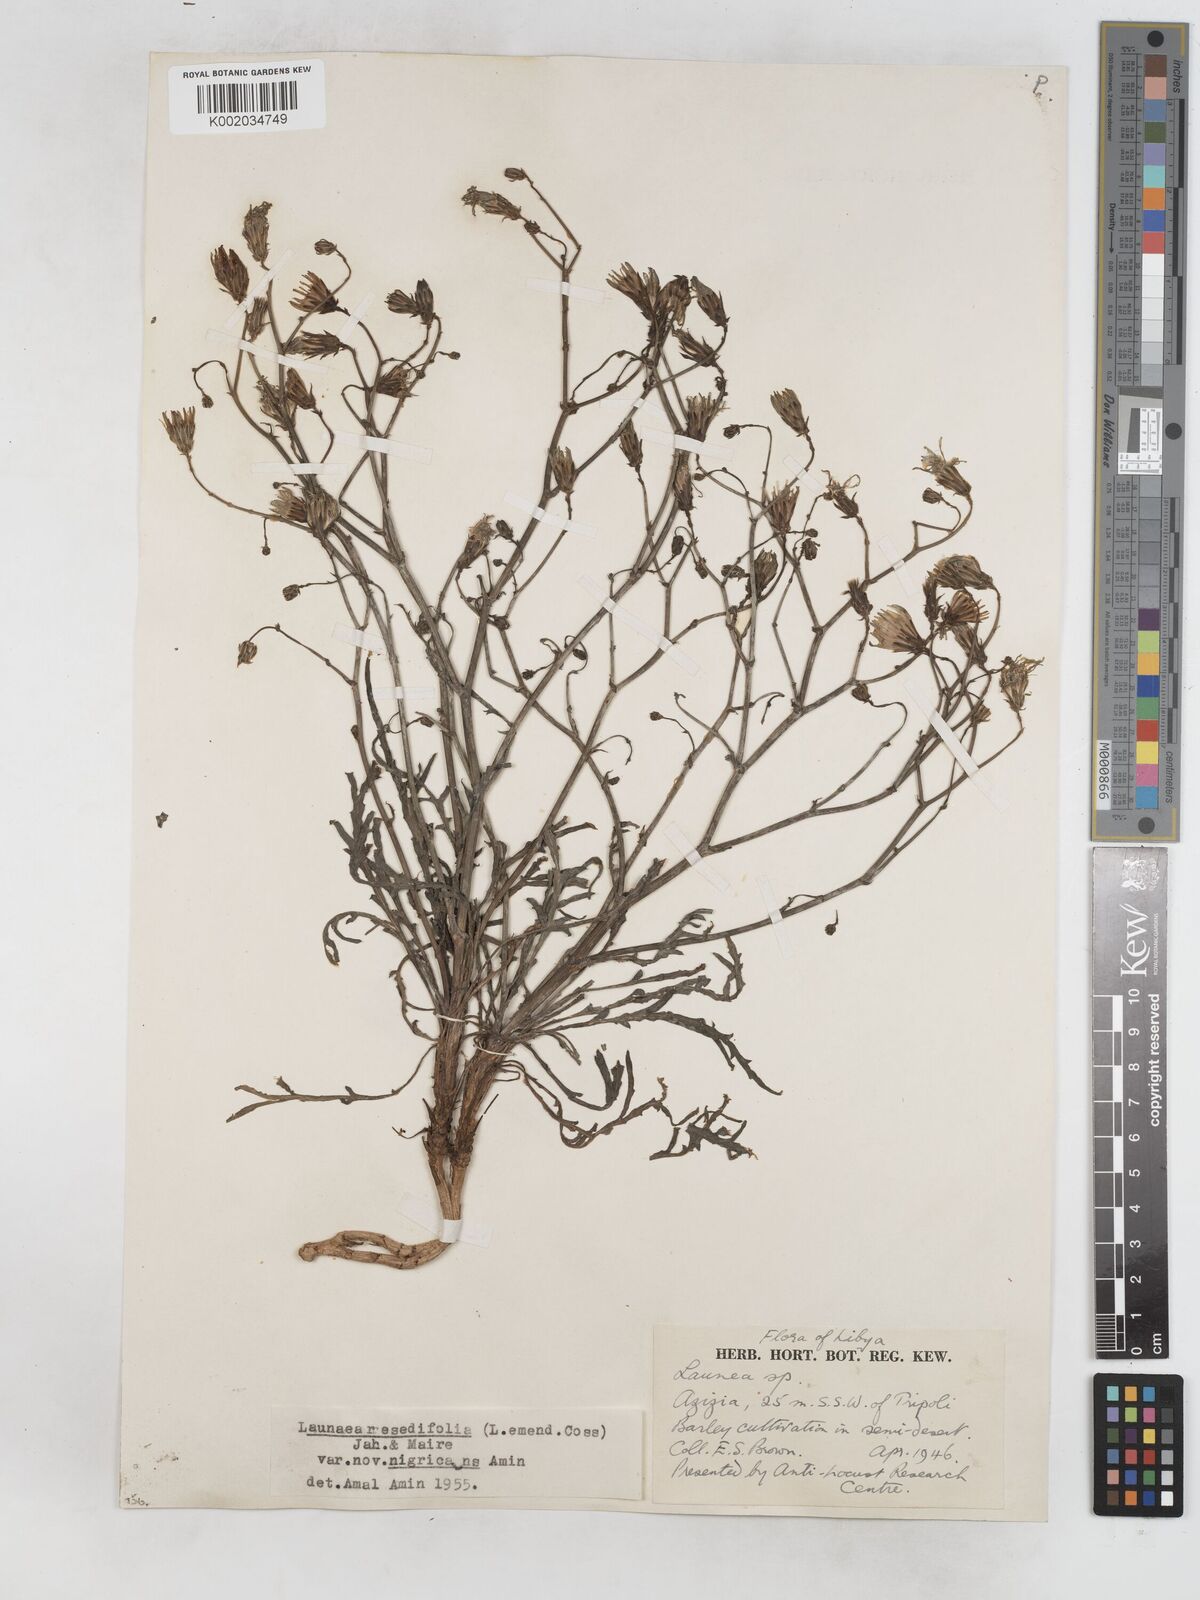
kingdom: Plantae
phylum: Tracheophyta
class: Magnoliopsida
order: Asterales
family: Asteraceae
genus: Launaea
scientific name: Launaea fragilis
